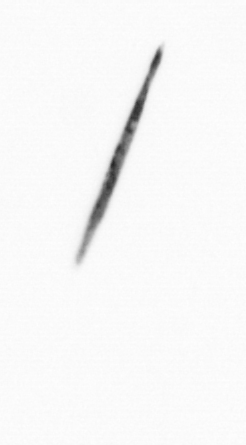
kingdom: Bacteria
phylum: Cyanobacteria
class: Cyanobacteriia
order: Cyanobacteriales
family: Microcoleaceae
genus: Trichodesmium
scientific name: Trichodesmium
